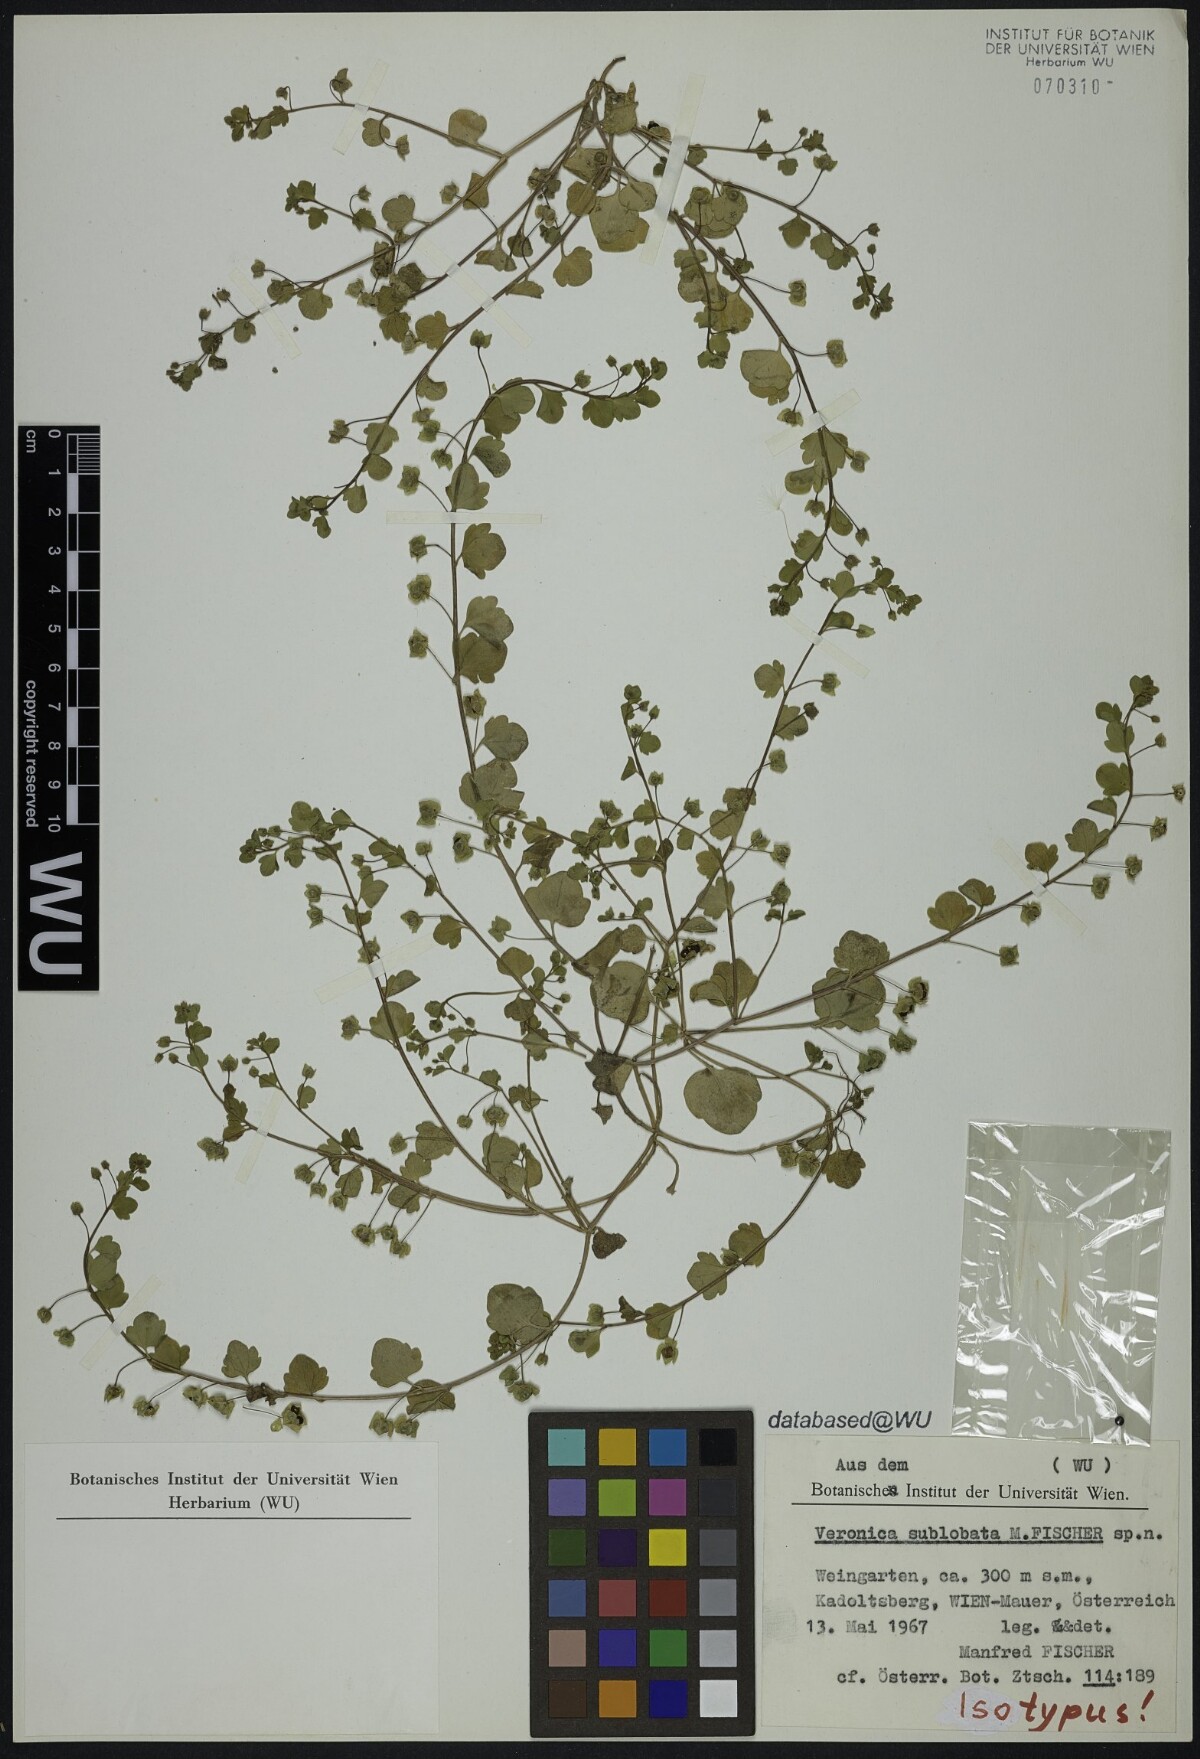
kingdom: Plantae
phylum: Tracheophyta
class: Magnoliopsida
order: Lamiales
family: Plantaginaceae
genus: Veronica
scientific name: Veronica sublobata
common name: False ivy-leaved speedwell
